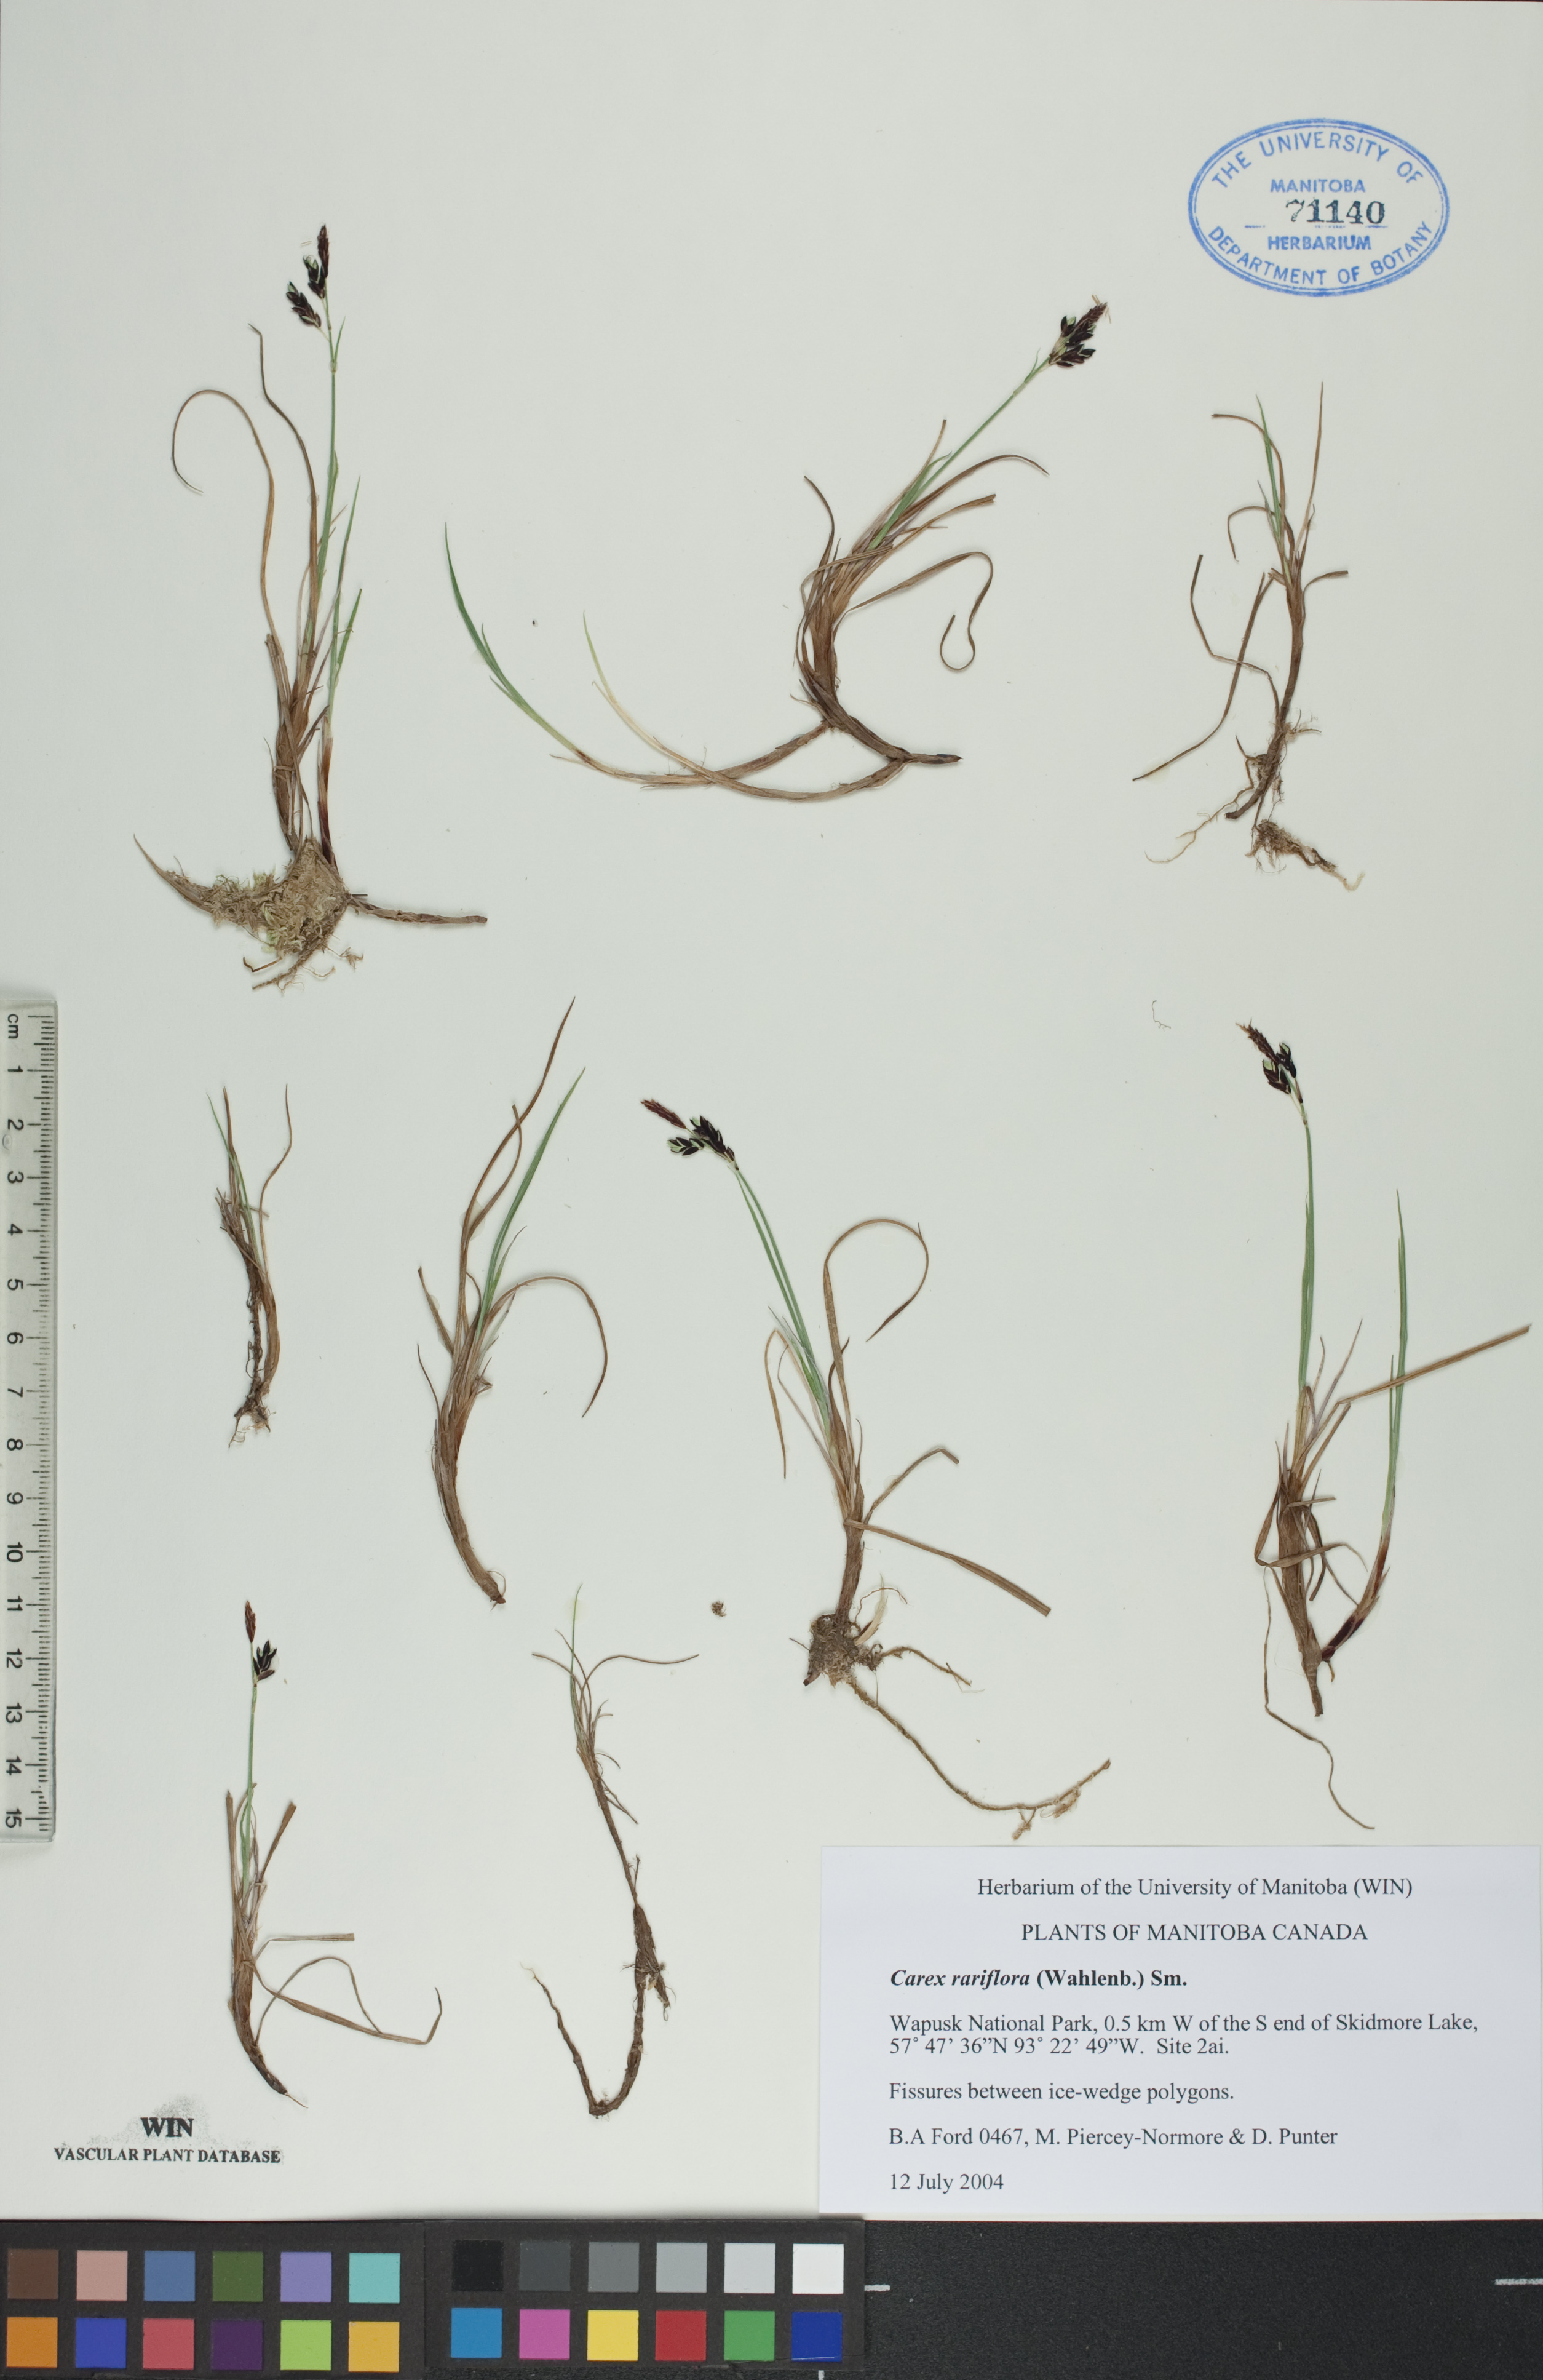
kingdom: Plantae
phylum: Tracheophyta
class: Liliopsida
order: Poales
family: Cyperaceae
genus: Carex
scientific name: Carex rariflora
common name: Loose-flowered alpine sedge
